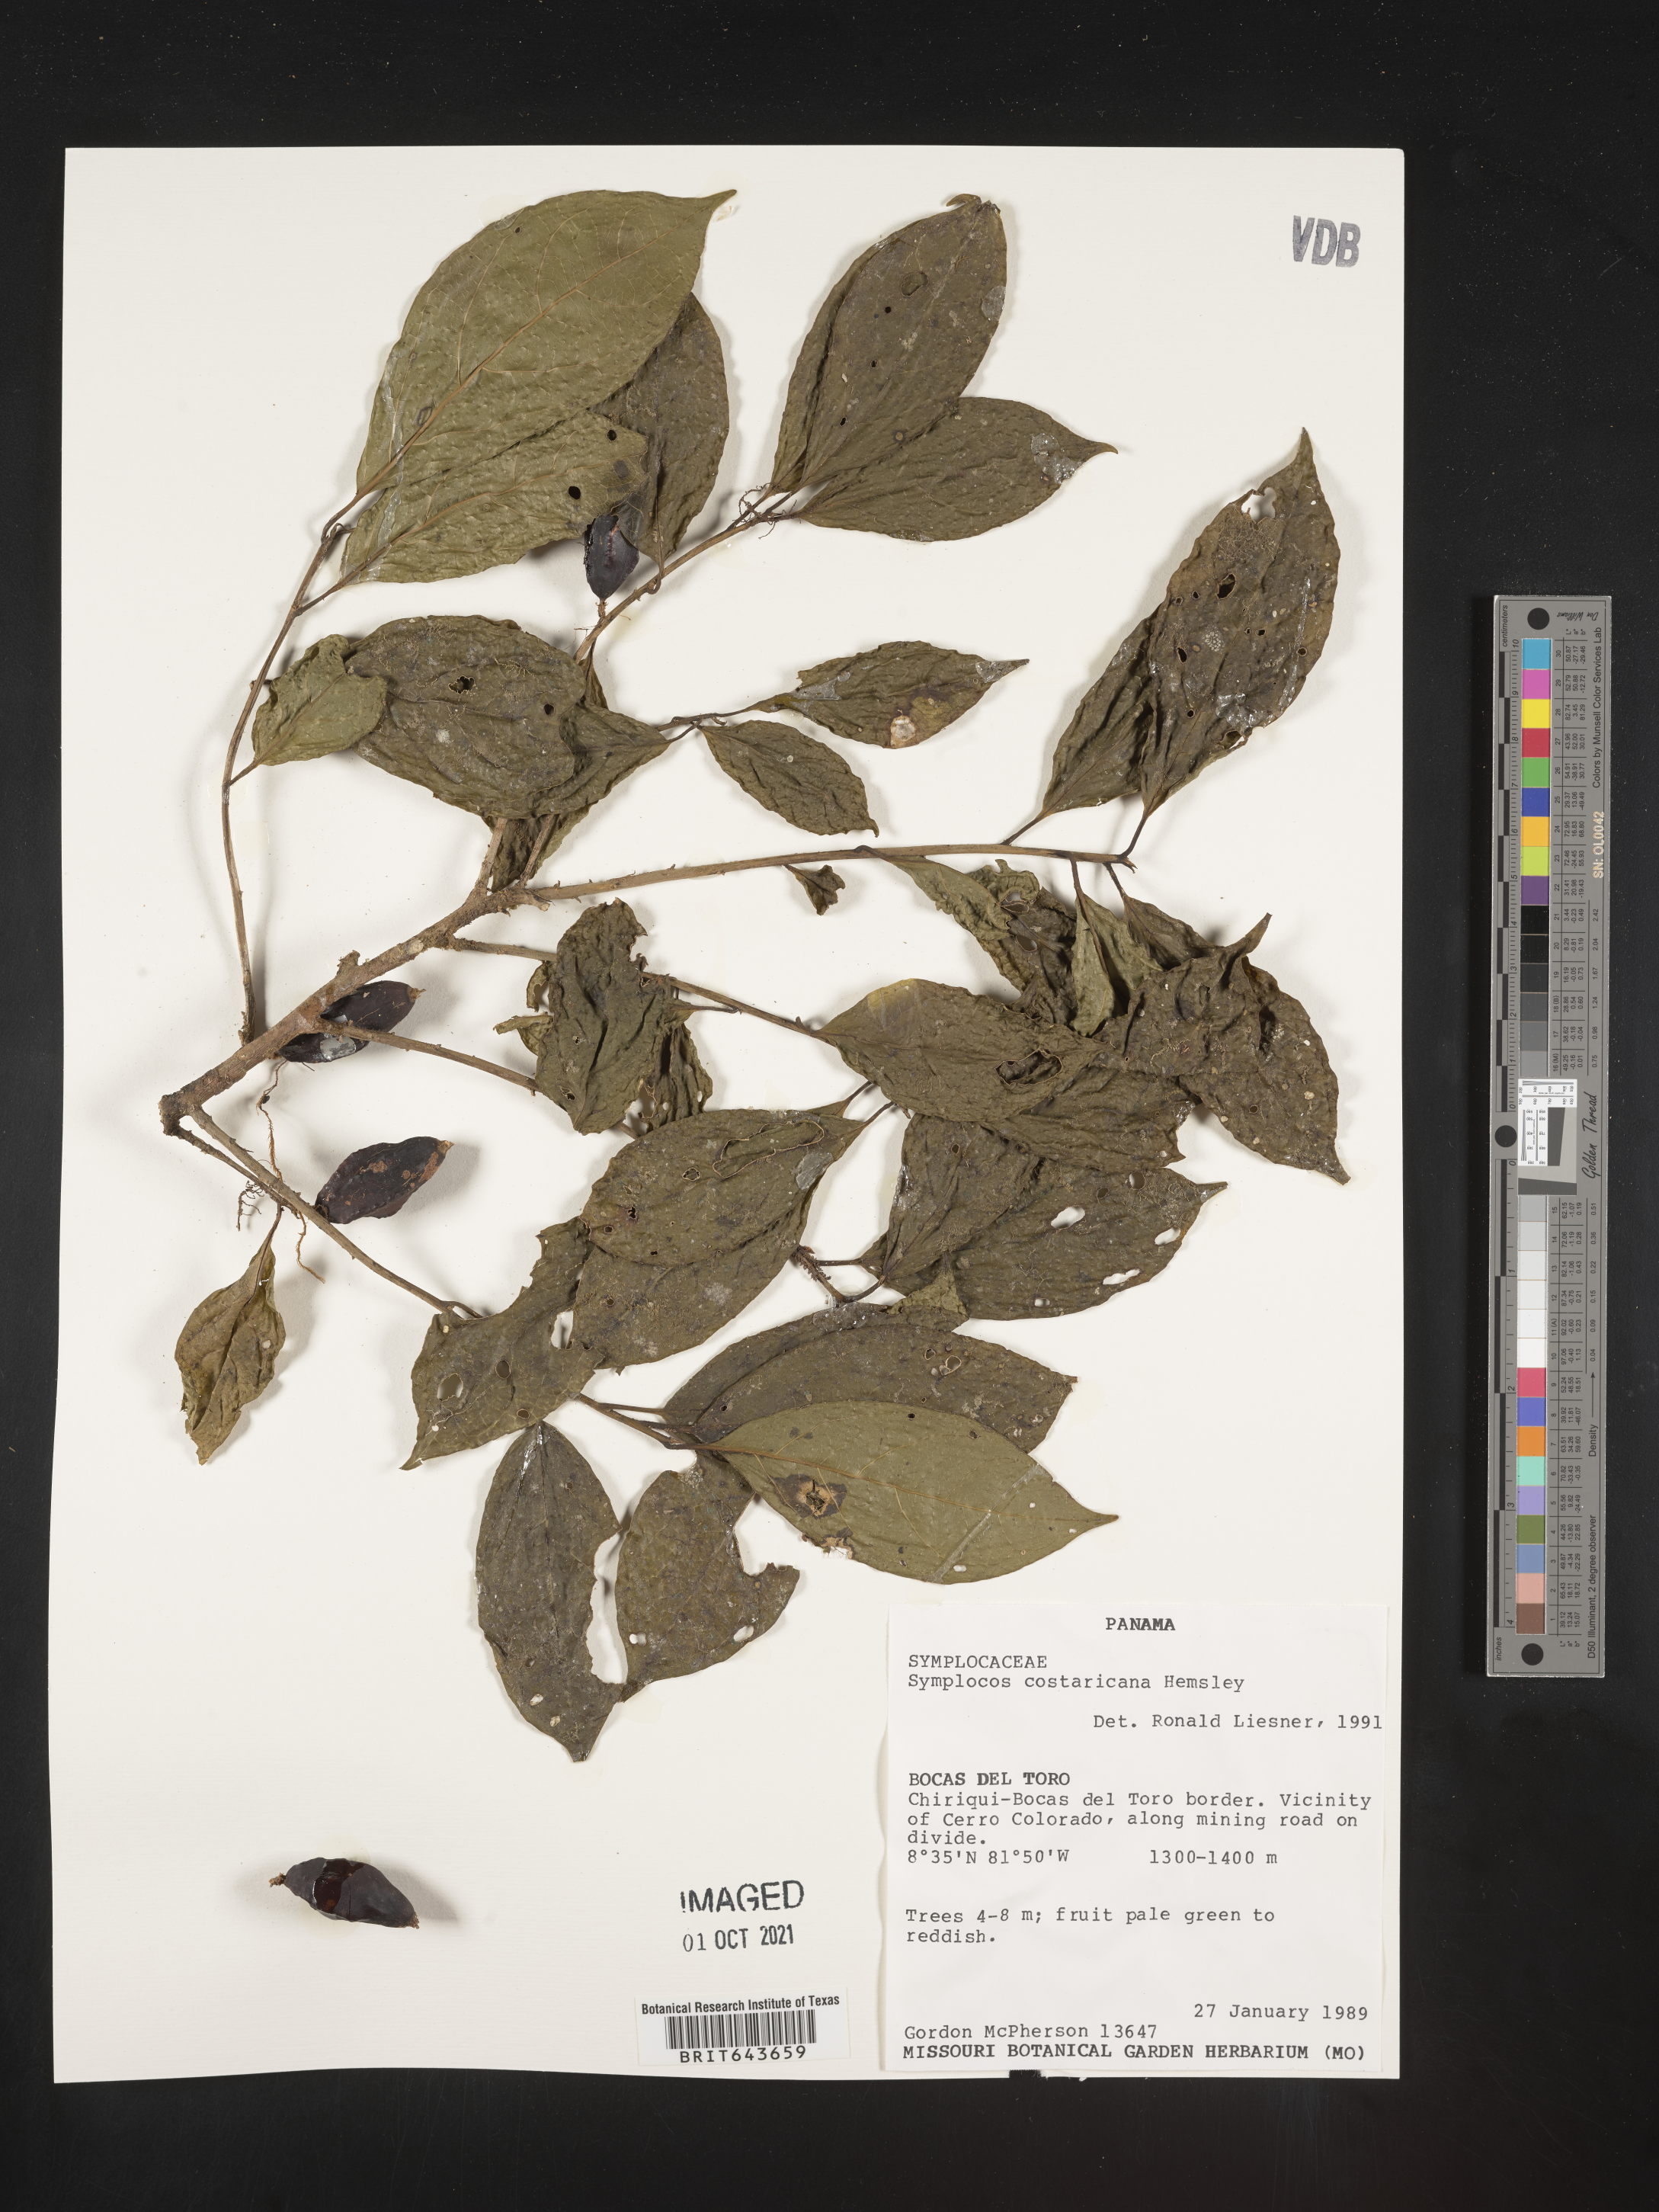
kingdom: Plantae
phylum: Tracheophyta
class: Magnoliopsida
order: Ericales
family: Symplocaceae
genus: Symplocos
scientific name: Symplocos
